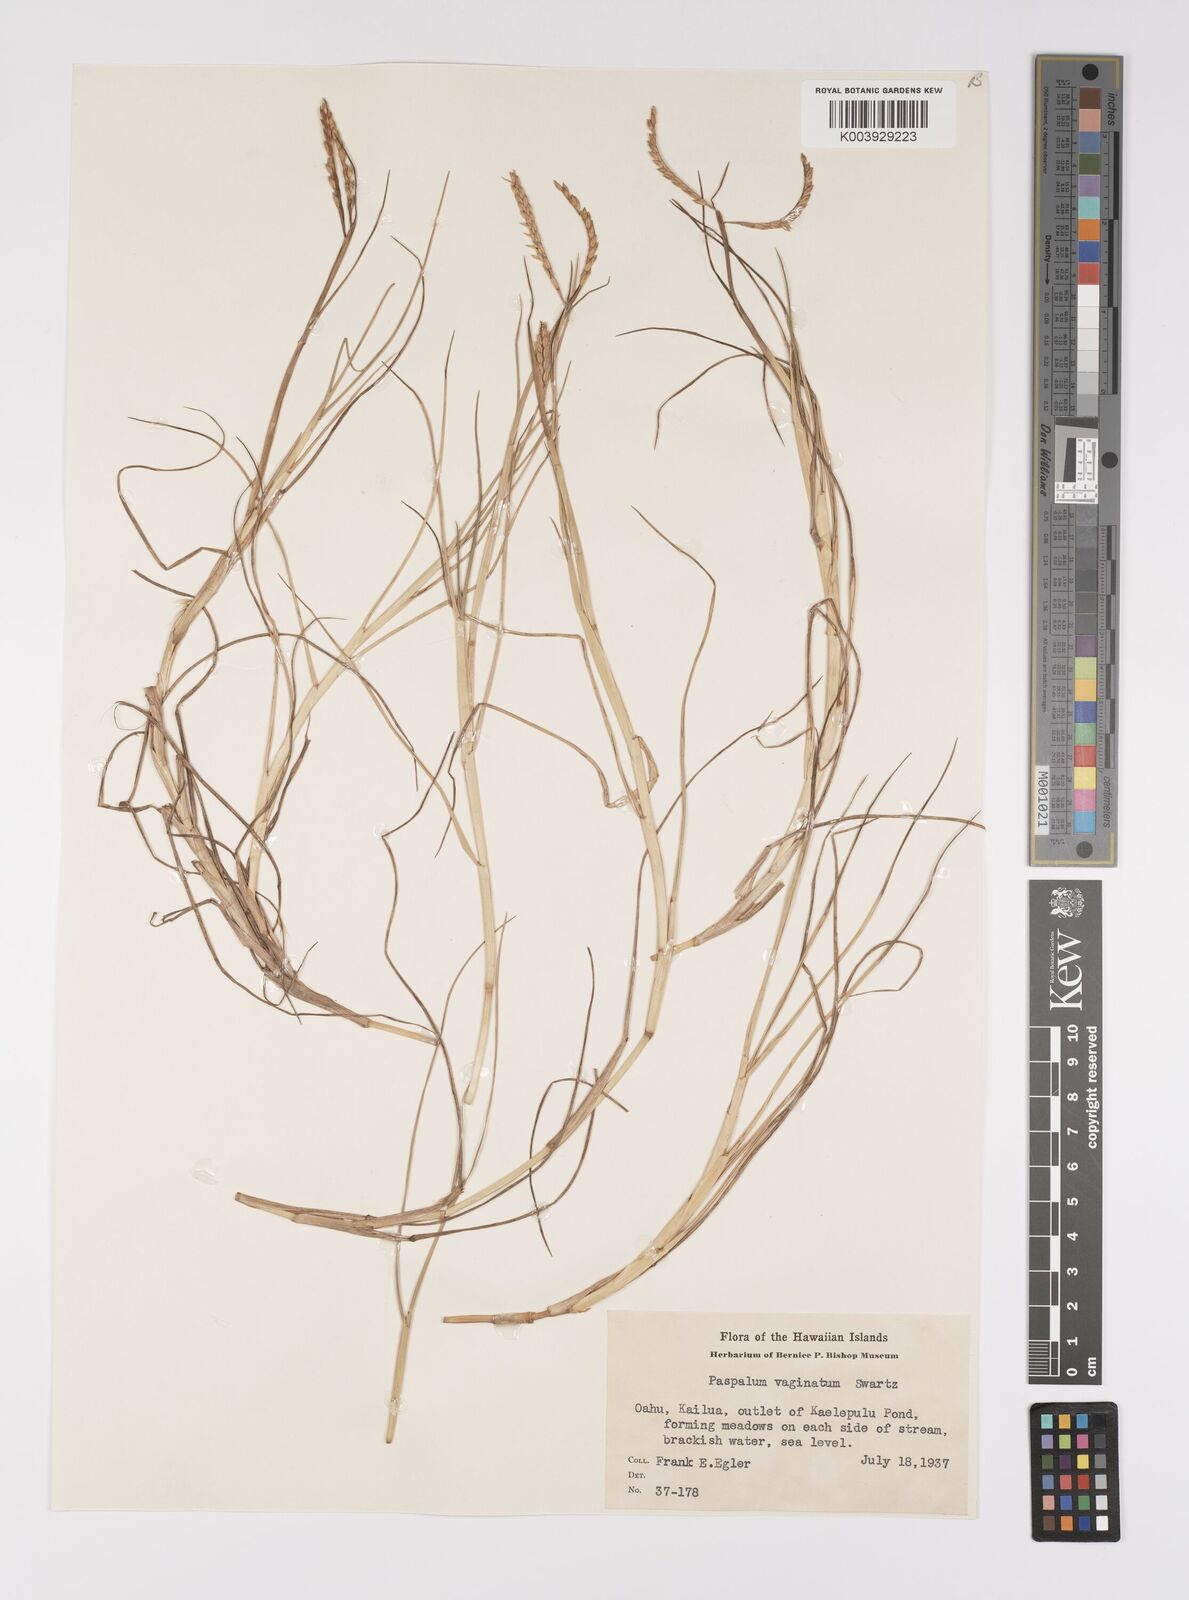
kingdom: Plantae
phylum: Tracheophyta
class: Liliopsida
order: Poales
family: Poaceae
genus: Paspalum
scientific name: Paspalum vaginatum
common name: Seashore paspalum
